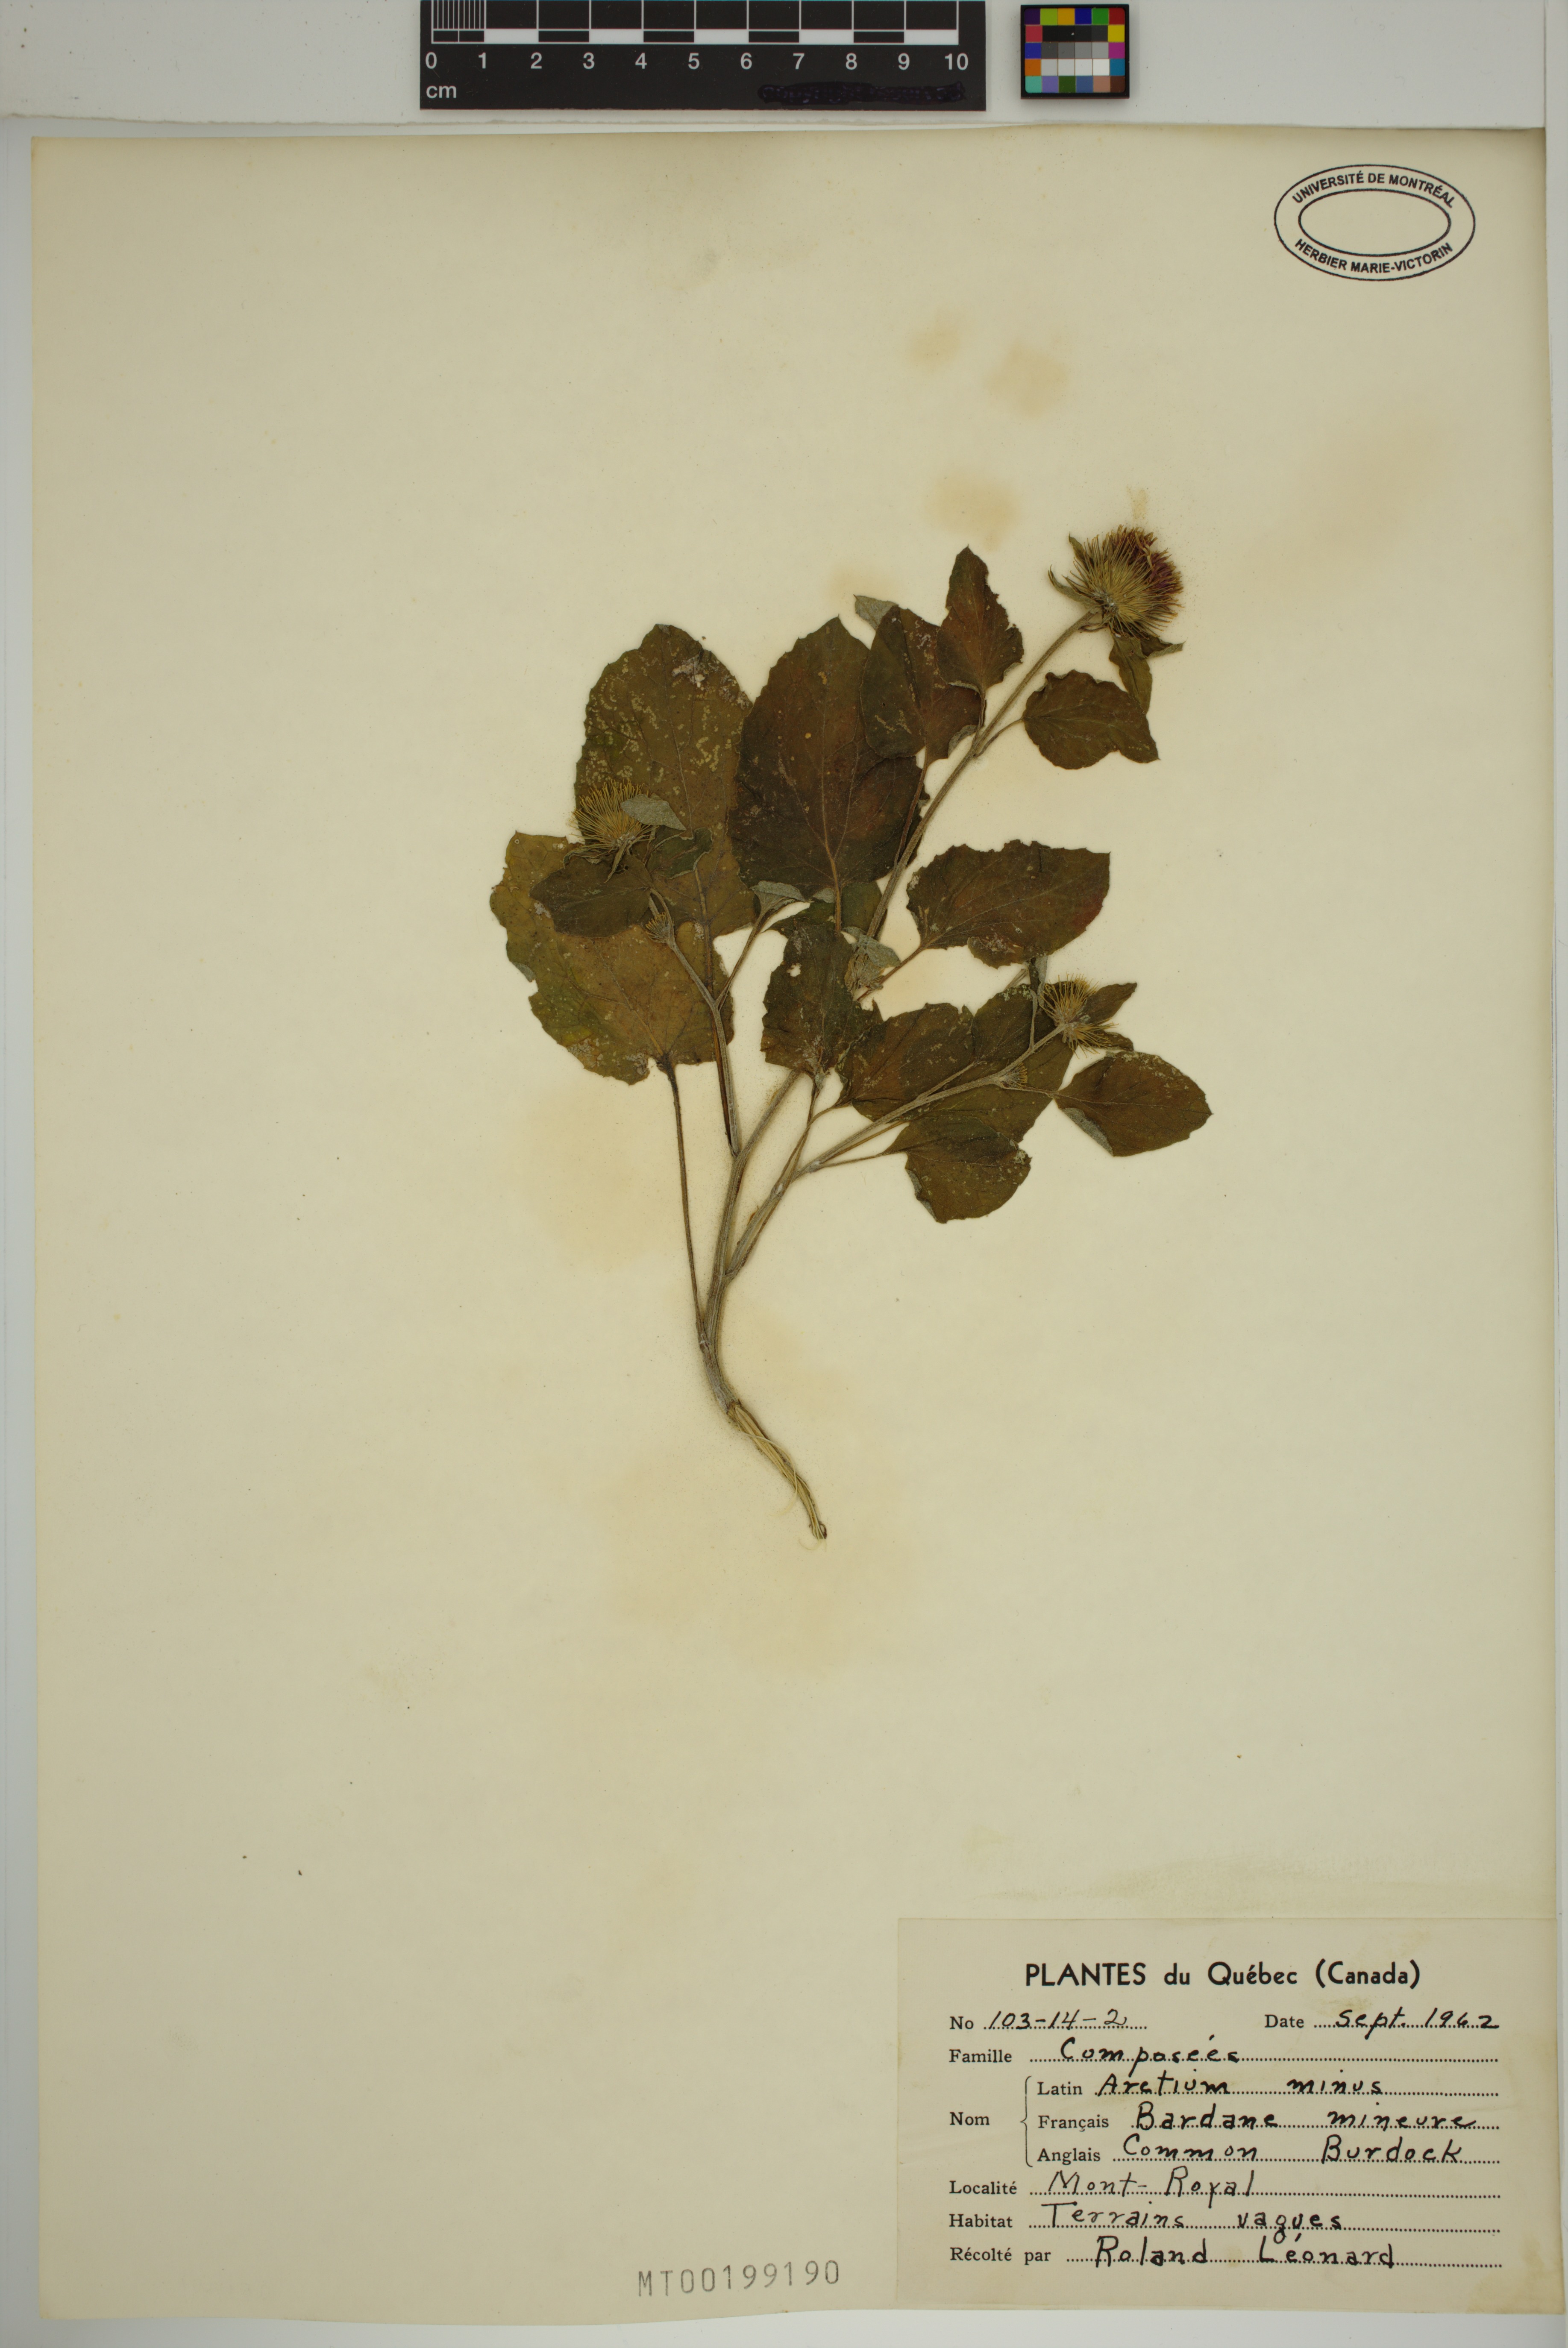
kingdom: Plantae
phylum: Tracheophyta
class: Magnoliopsida
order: Asterales
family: Asteraceae
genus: Arctium
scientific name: Arctium minus
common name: Lesser burdock
